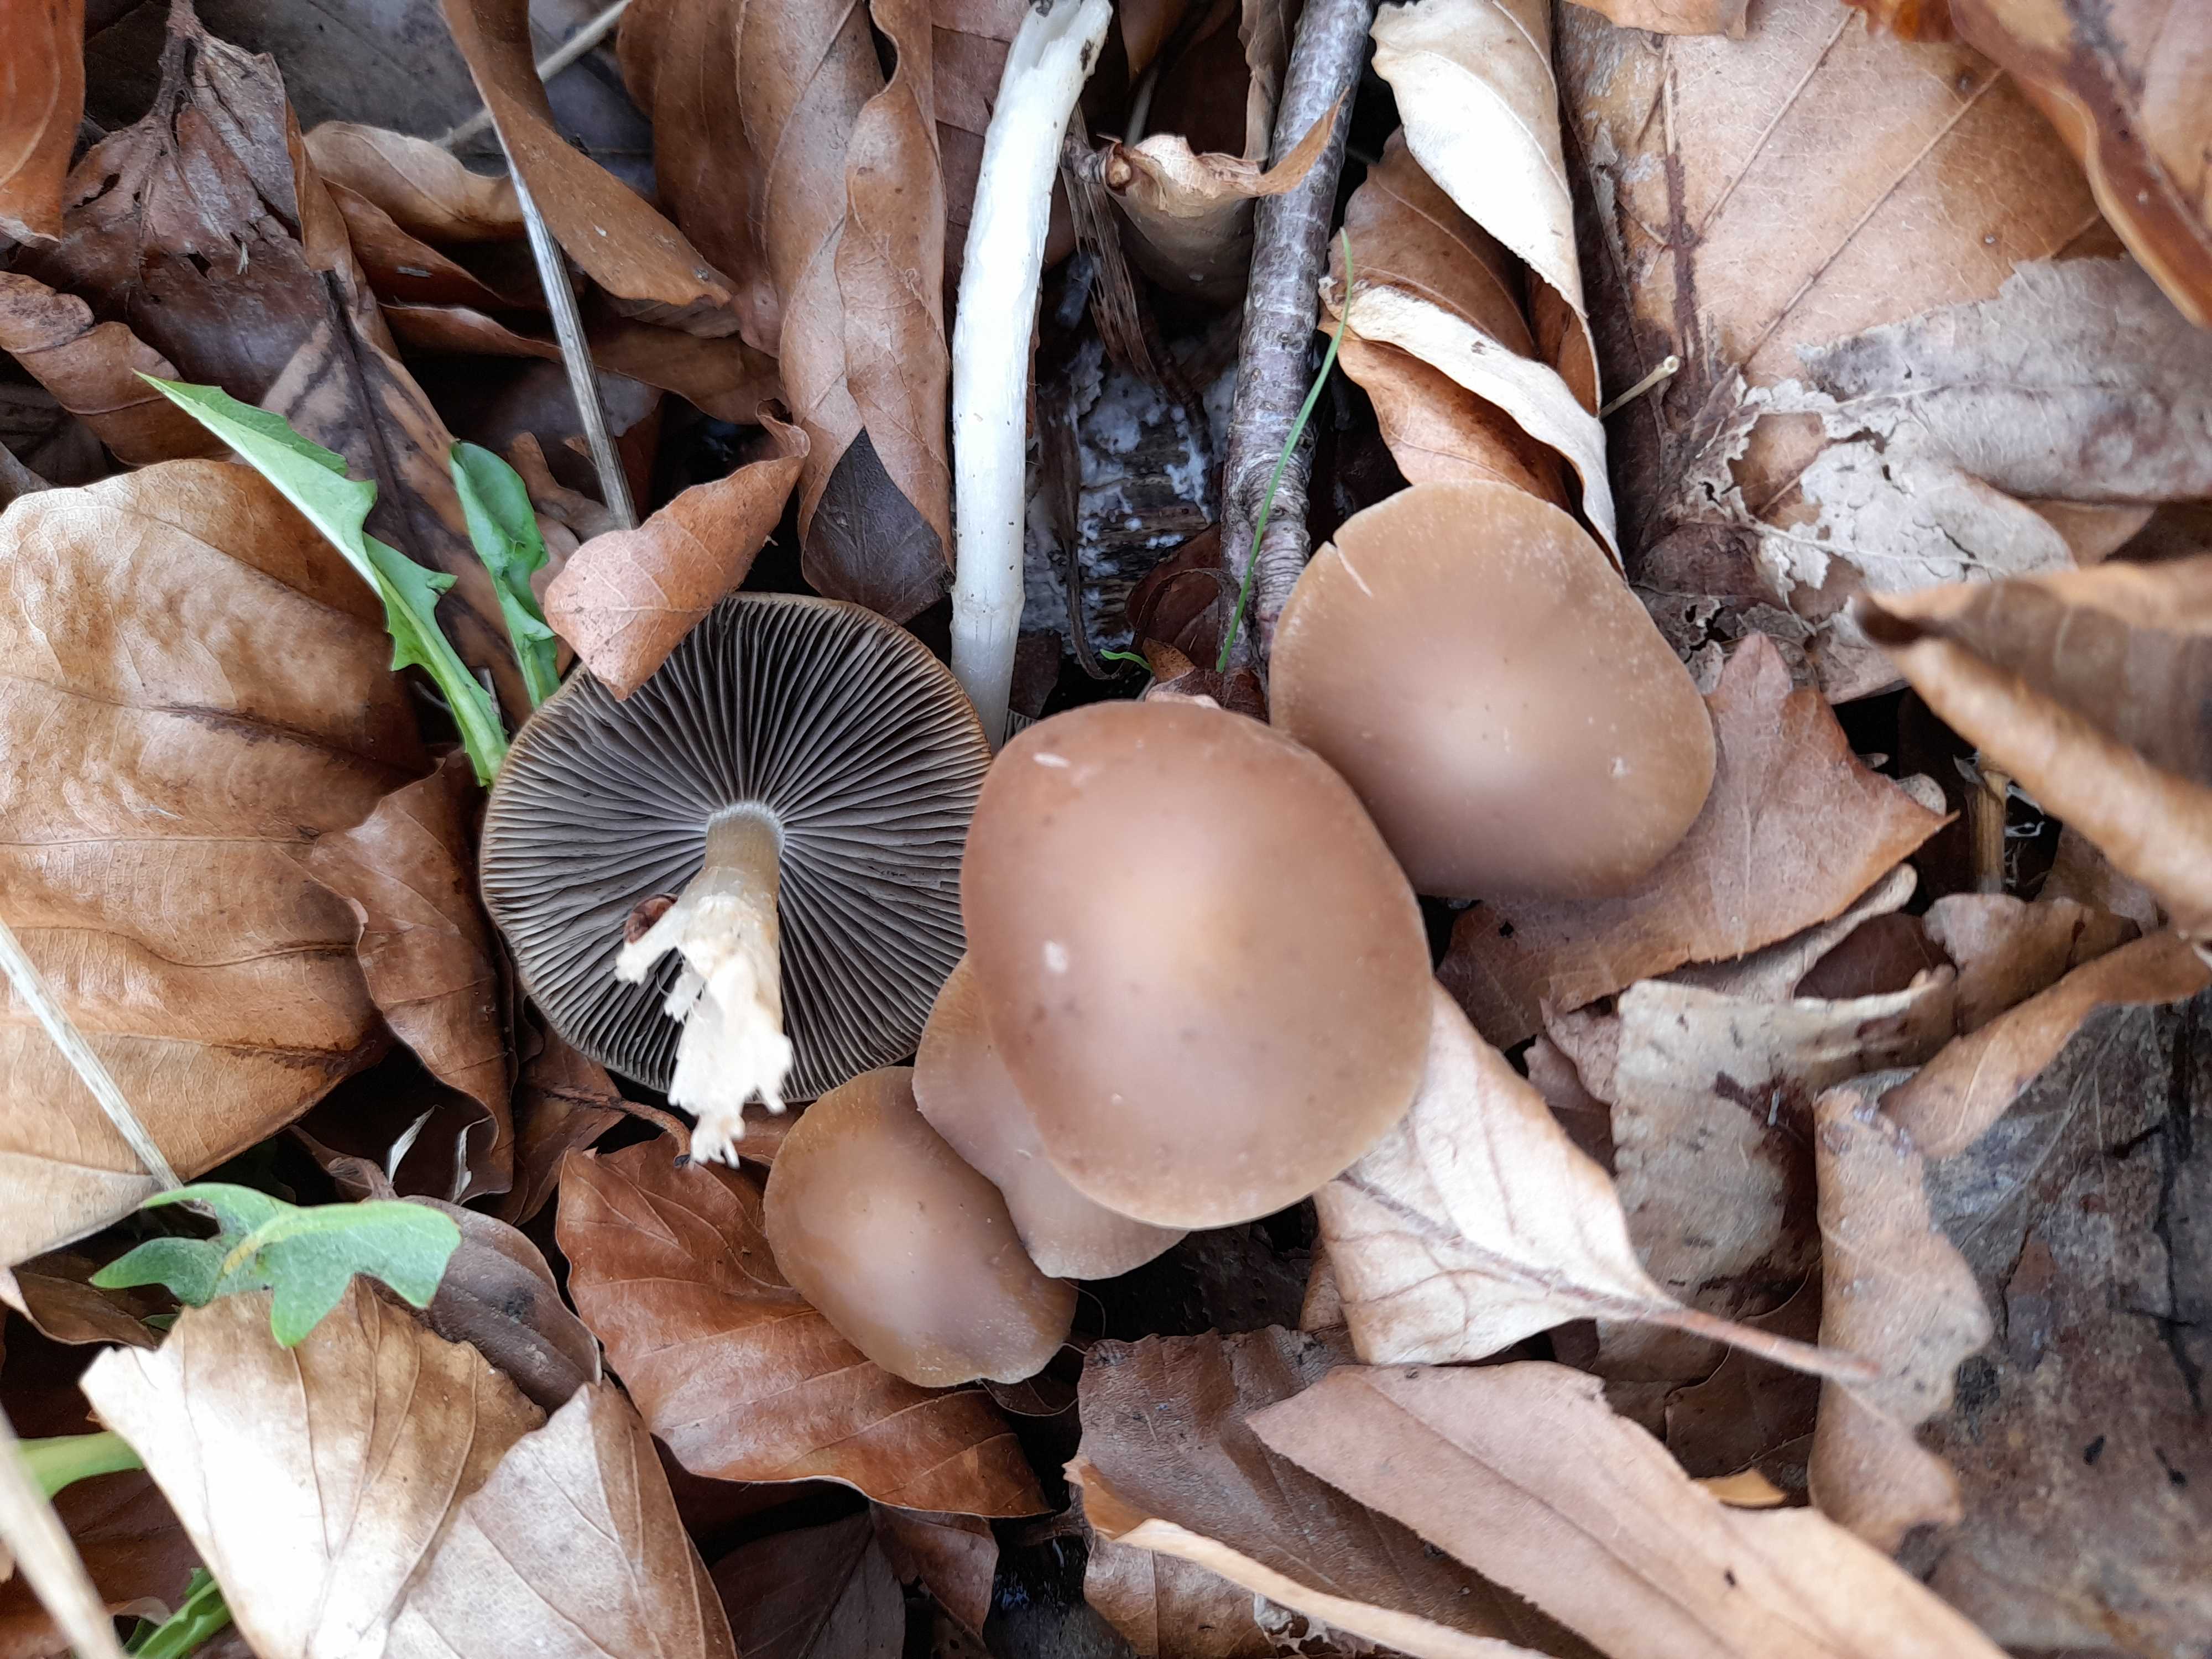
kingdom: Fungi
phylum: Basidiomycota
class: Agaricomycetes
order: Agaricales
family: Psathyrellaceae
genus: Psathyrella
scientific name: Psathyrella spadiceogrisea
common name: gråbrun mørkhat
